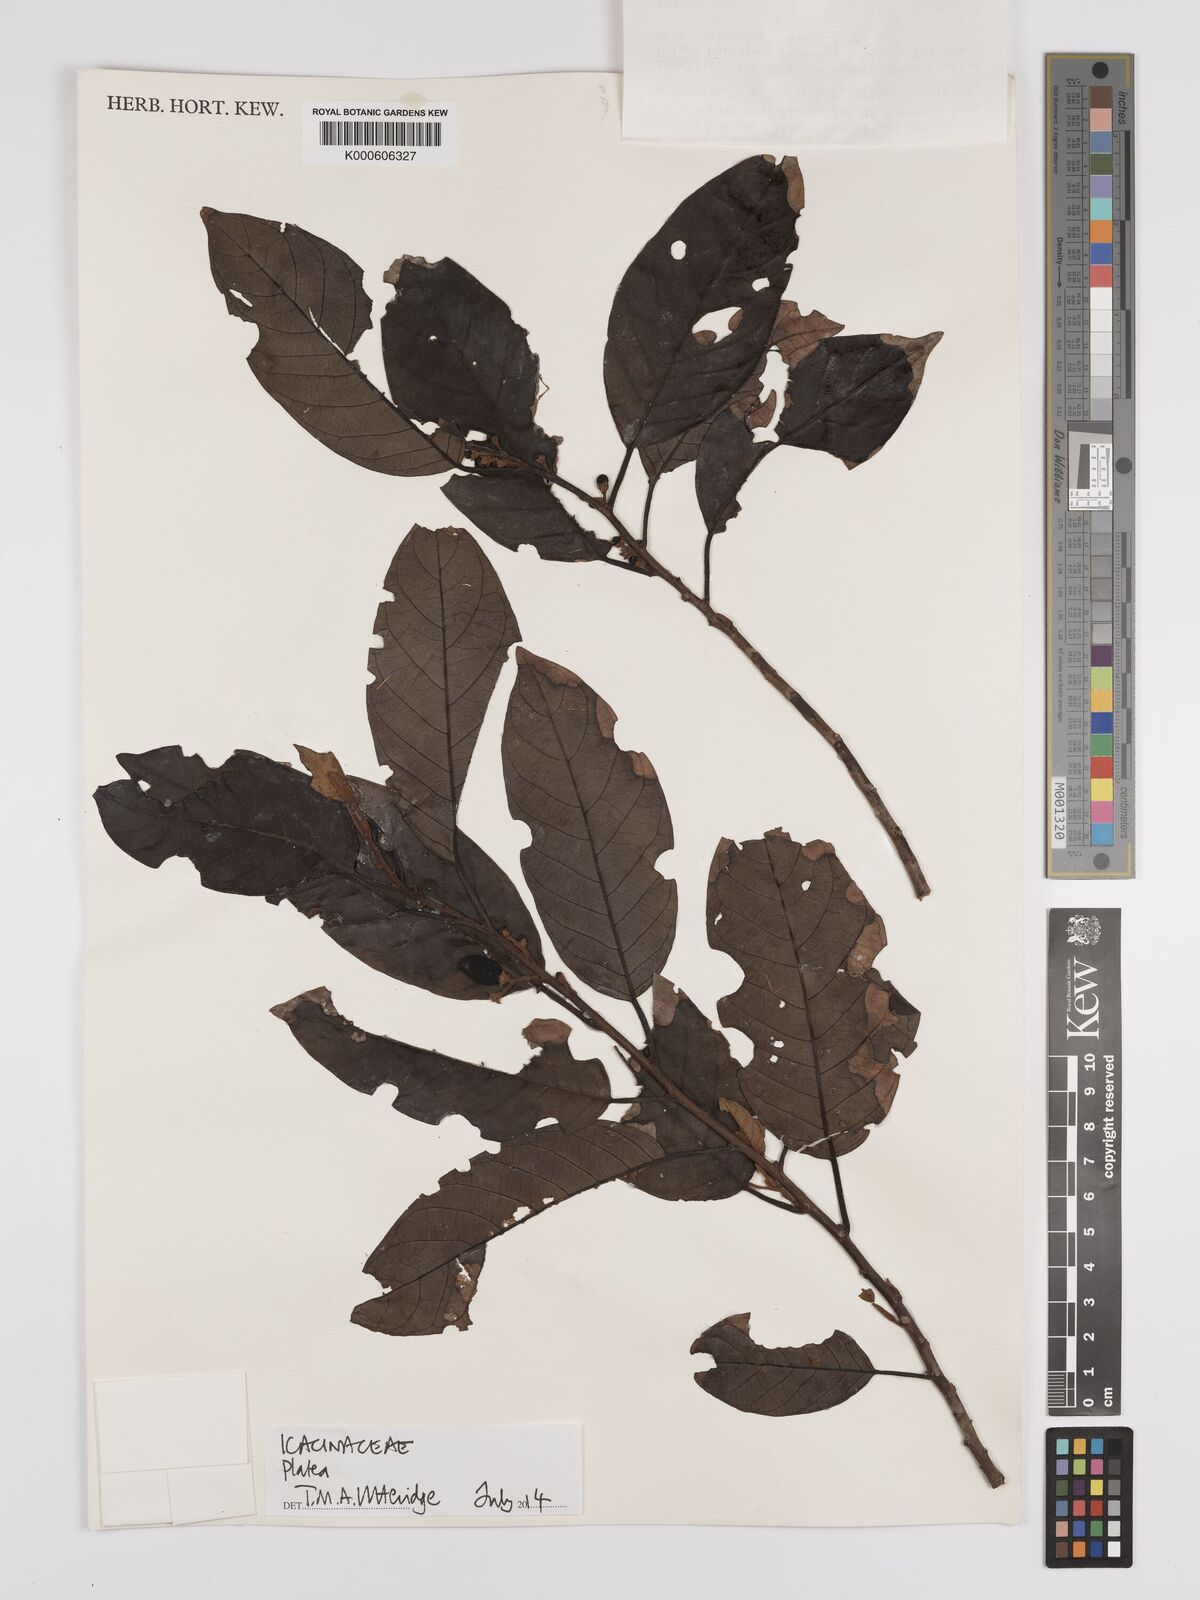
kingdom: Plantae
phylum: Tracheophyta
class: Magnoliopsida
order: Metteniusales
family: Metteniusaceae
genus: Platea
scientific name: Platea
